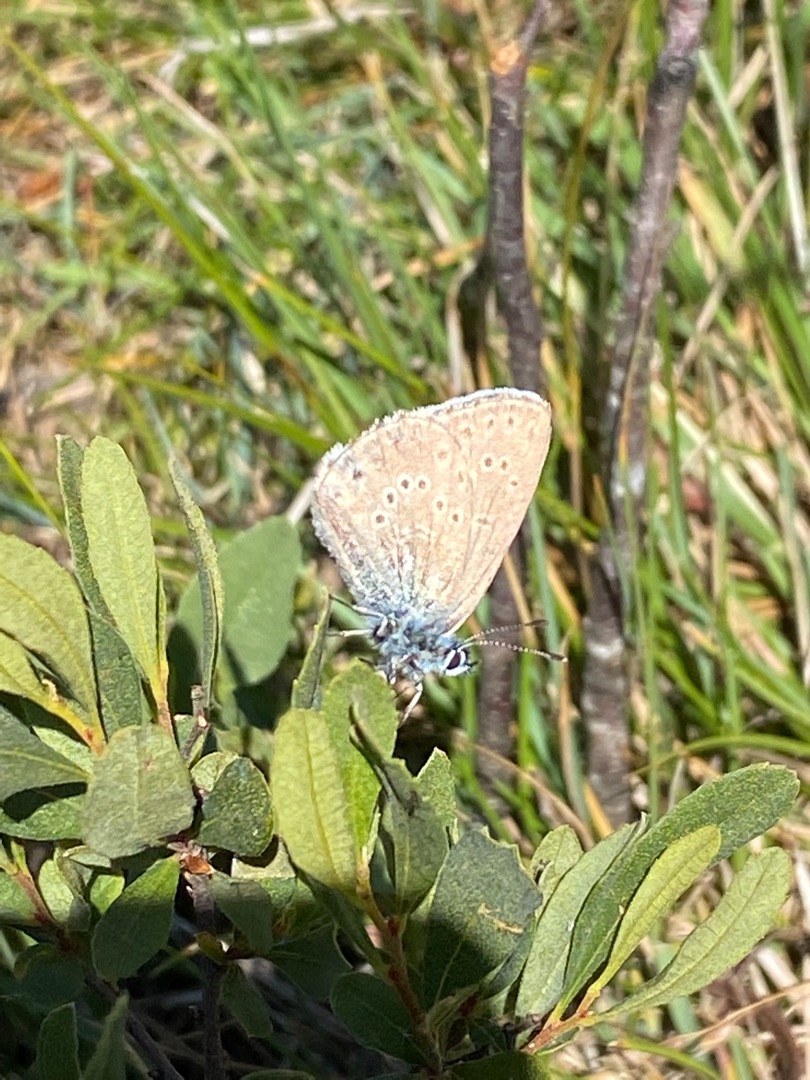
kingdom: Animalia
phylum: Arthropoda
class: Insecta
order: Lepidoptera
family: Lycaenidae
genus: Maculinea
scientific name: Maculinea alcon
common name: Ensianblåfugl
